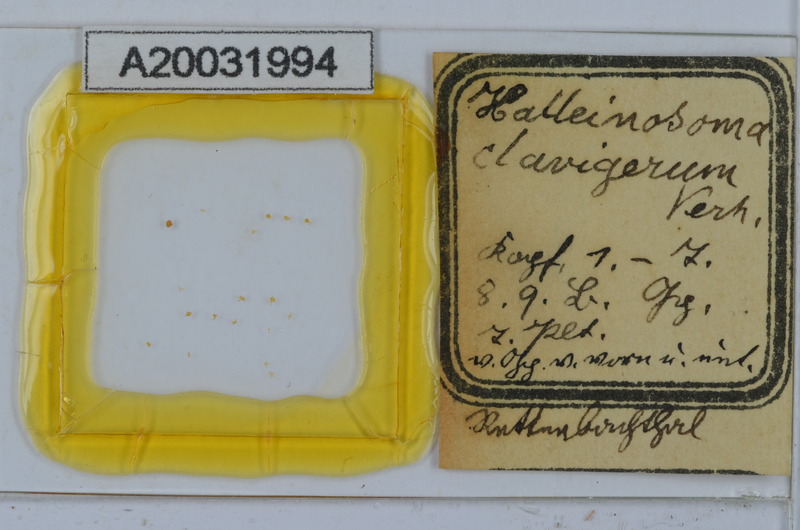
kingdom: Animalia
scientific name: Animalia
